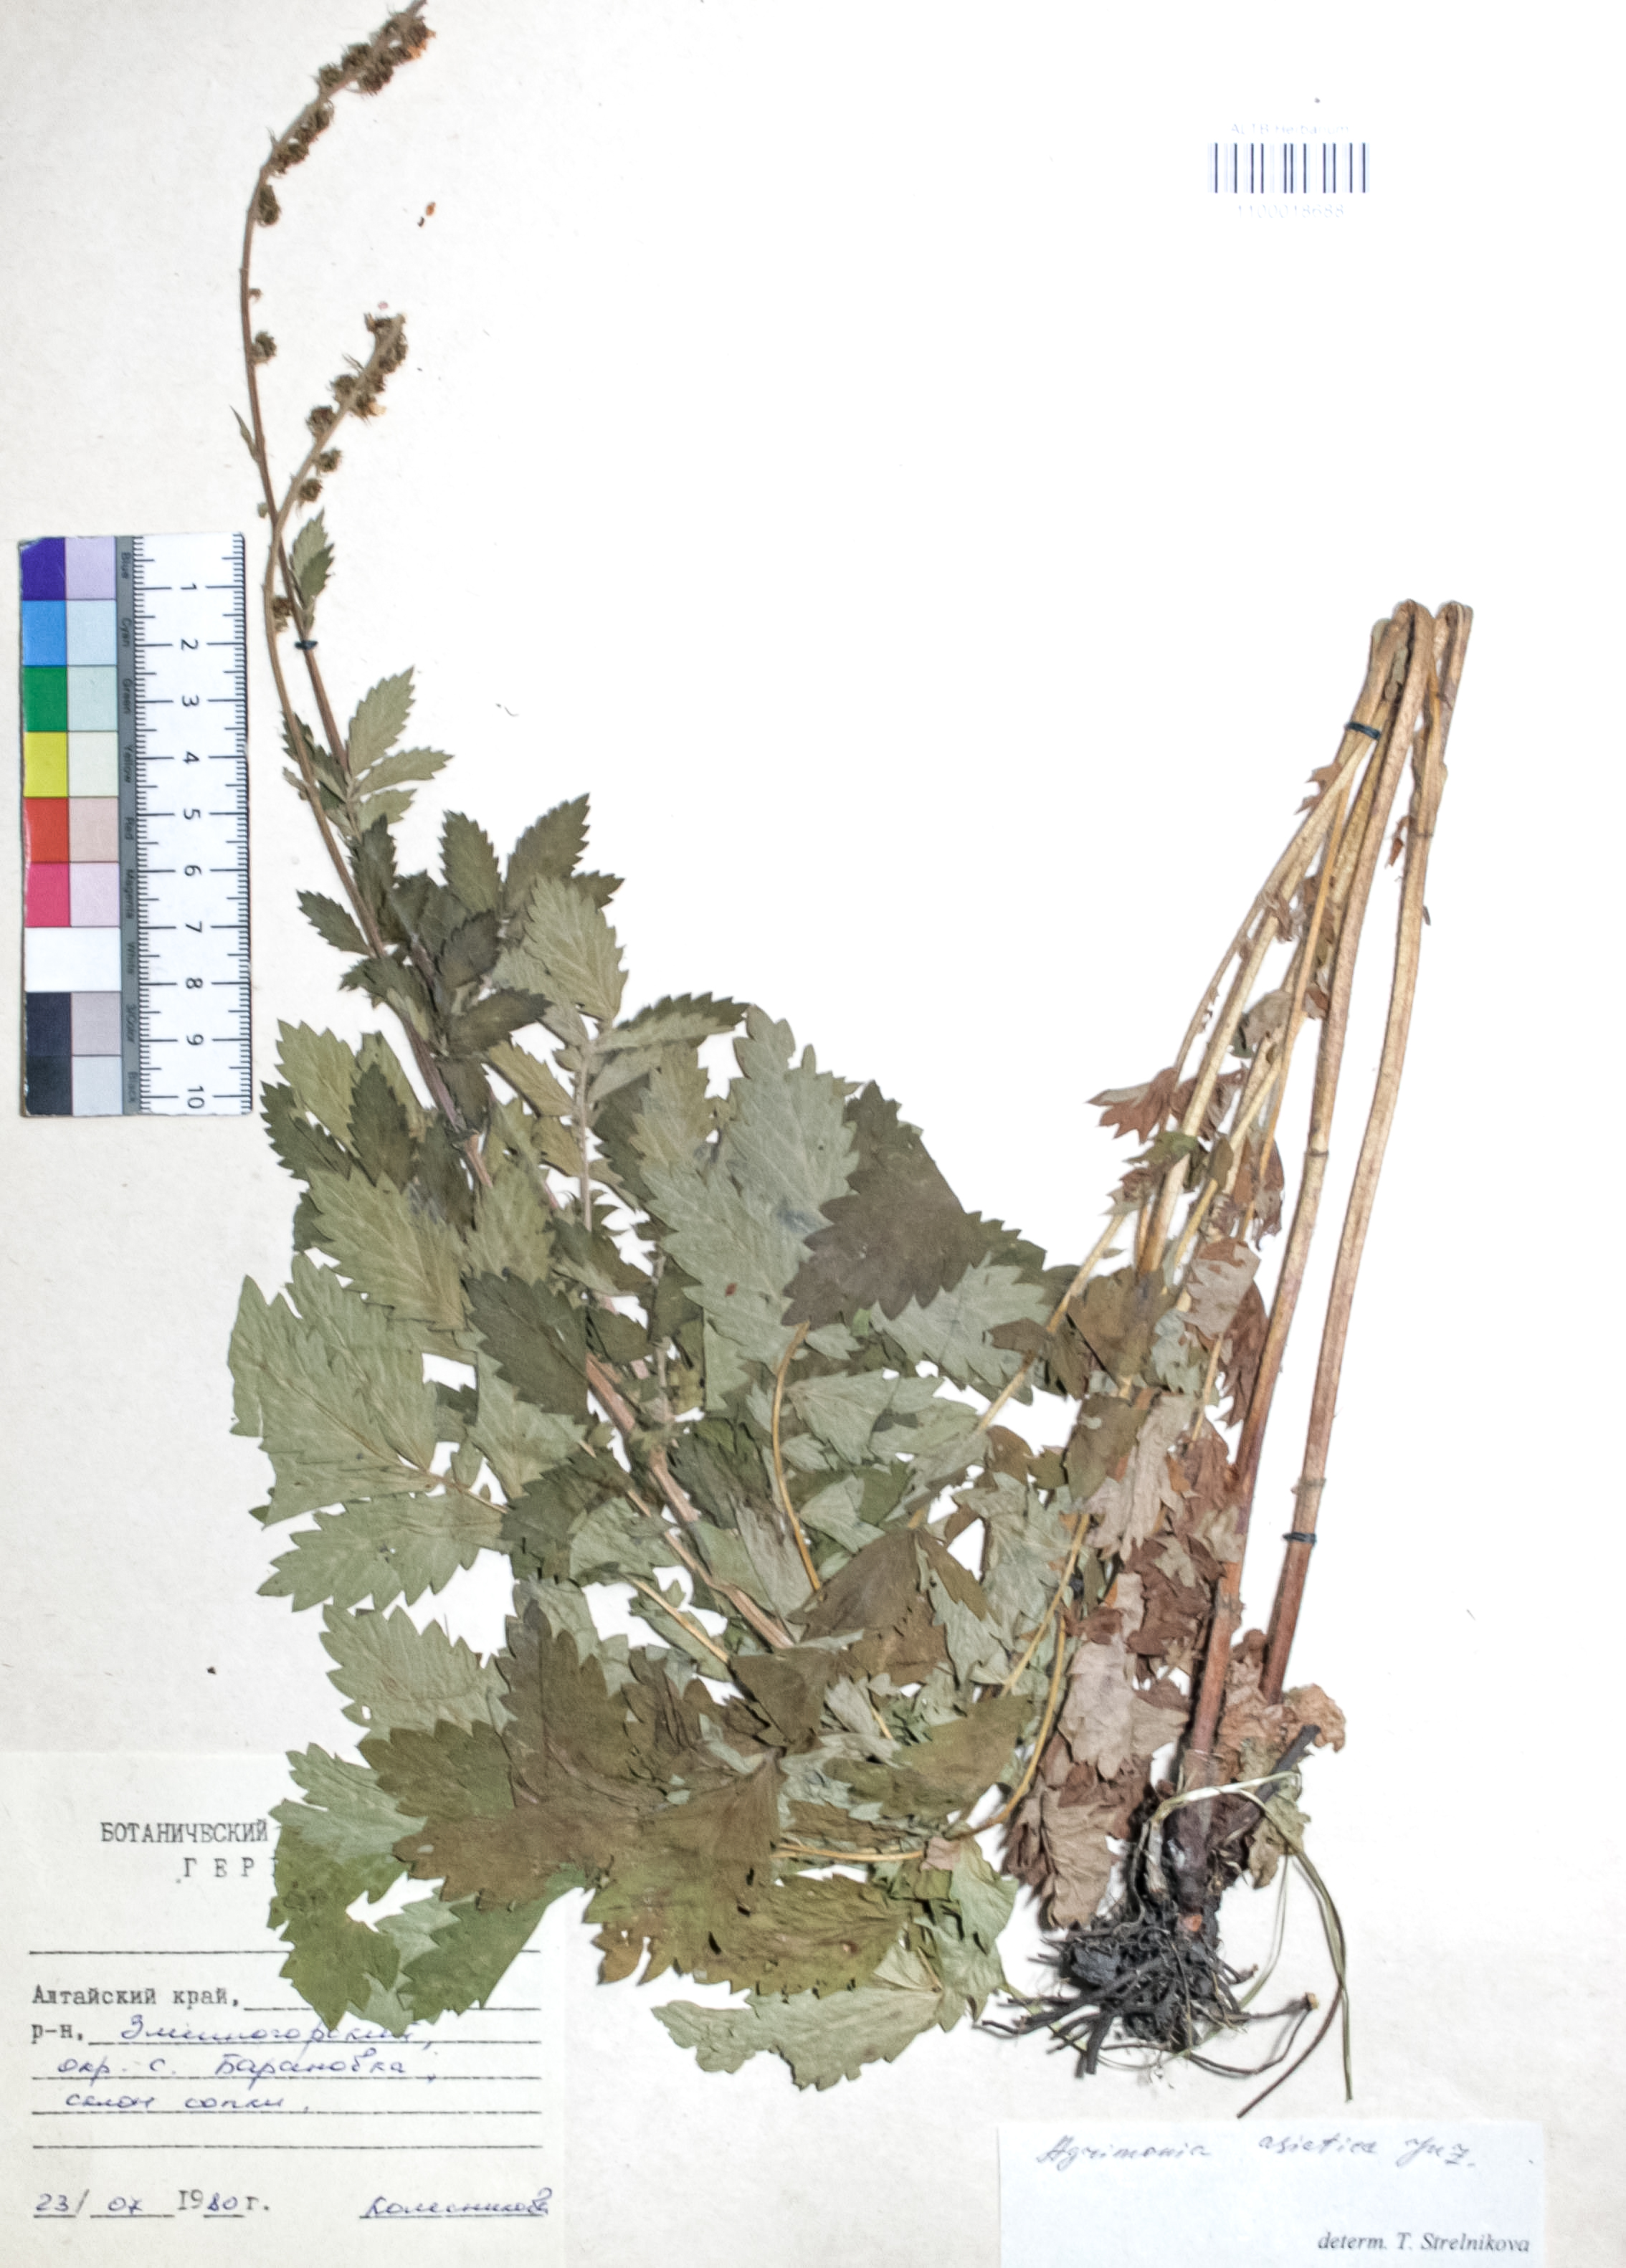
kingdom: Plantae
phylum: Tracheophyta
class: Magnoliopsida
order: Rosales
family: Rosaceae
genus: Agrimonia
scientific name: Agrimonia eupatoria
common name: Agrimony
